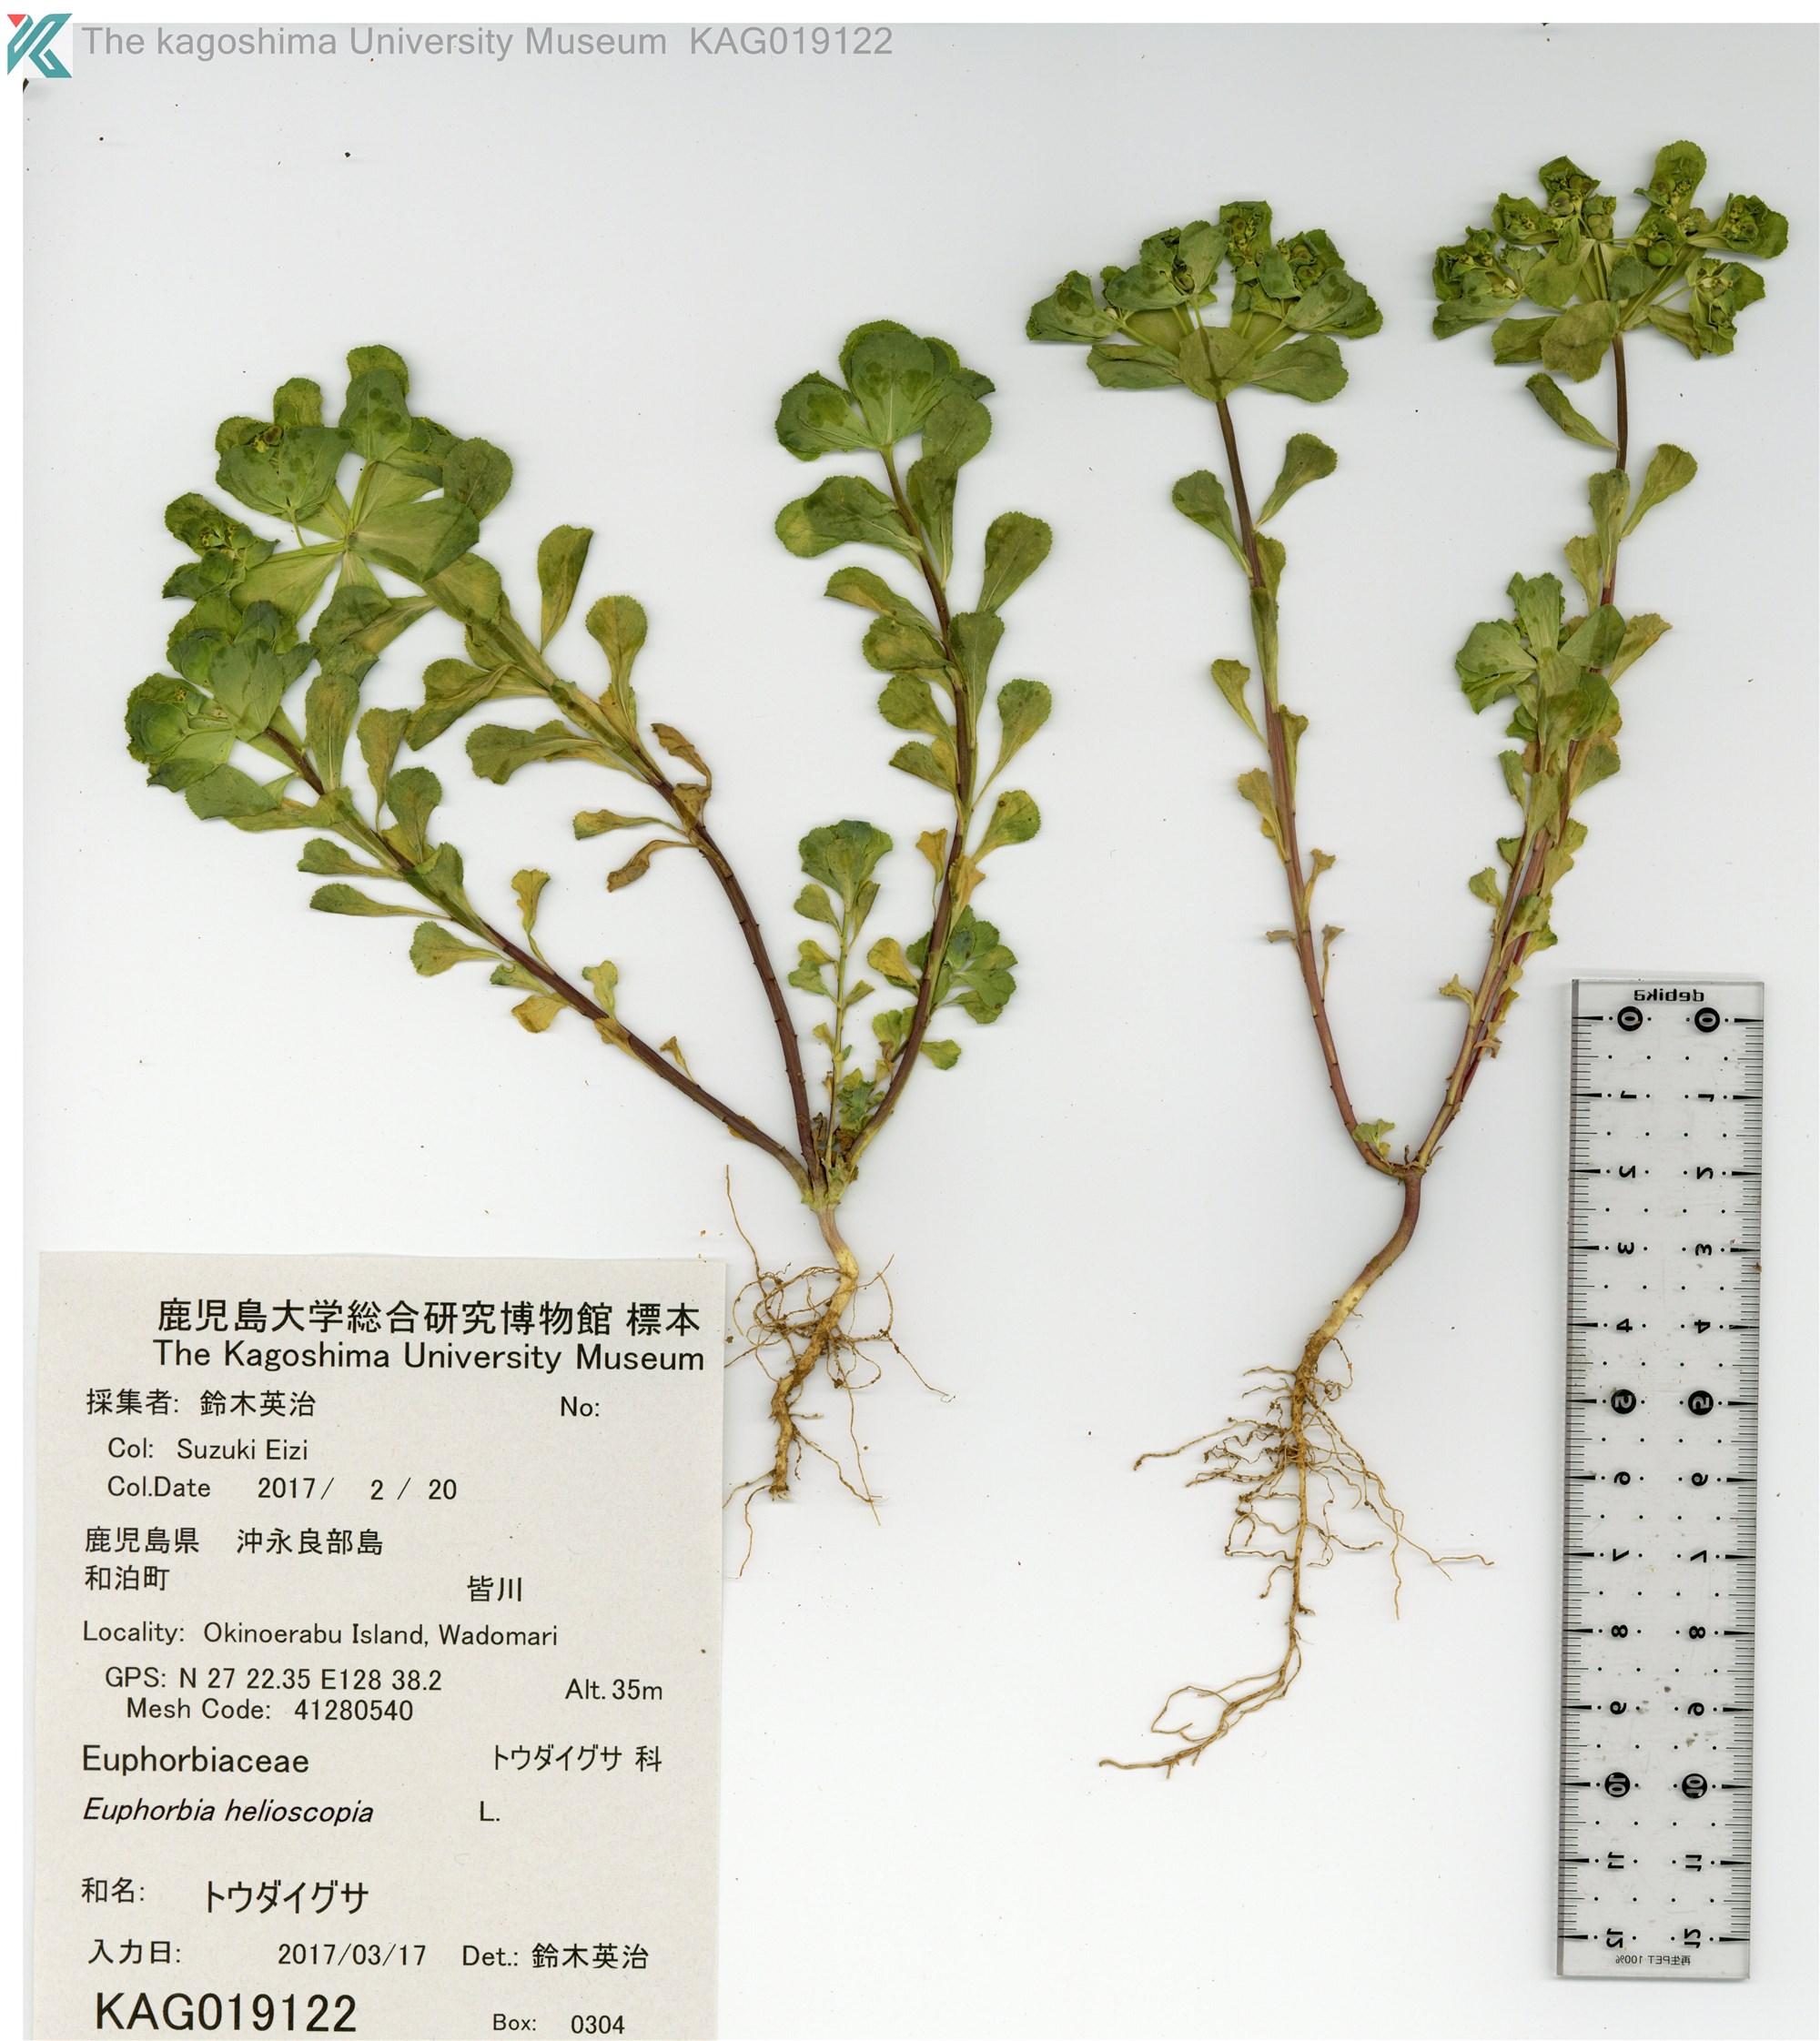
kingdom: Plantae
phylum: Tracheophyta
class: Magnoliopsida
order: Malpighiales
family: Euphorbiaceae
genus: Euphorbia
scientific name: Euphorbia helioscopia
